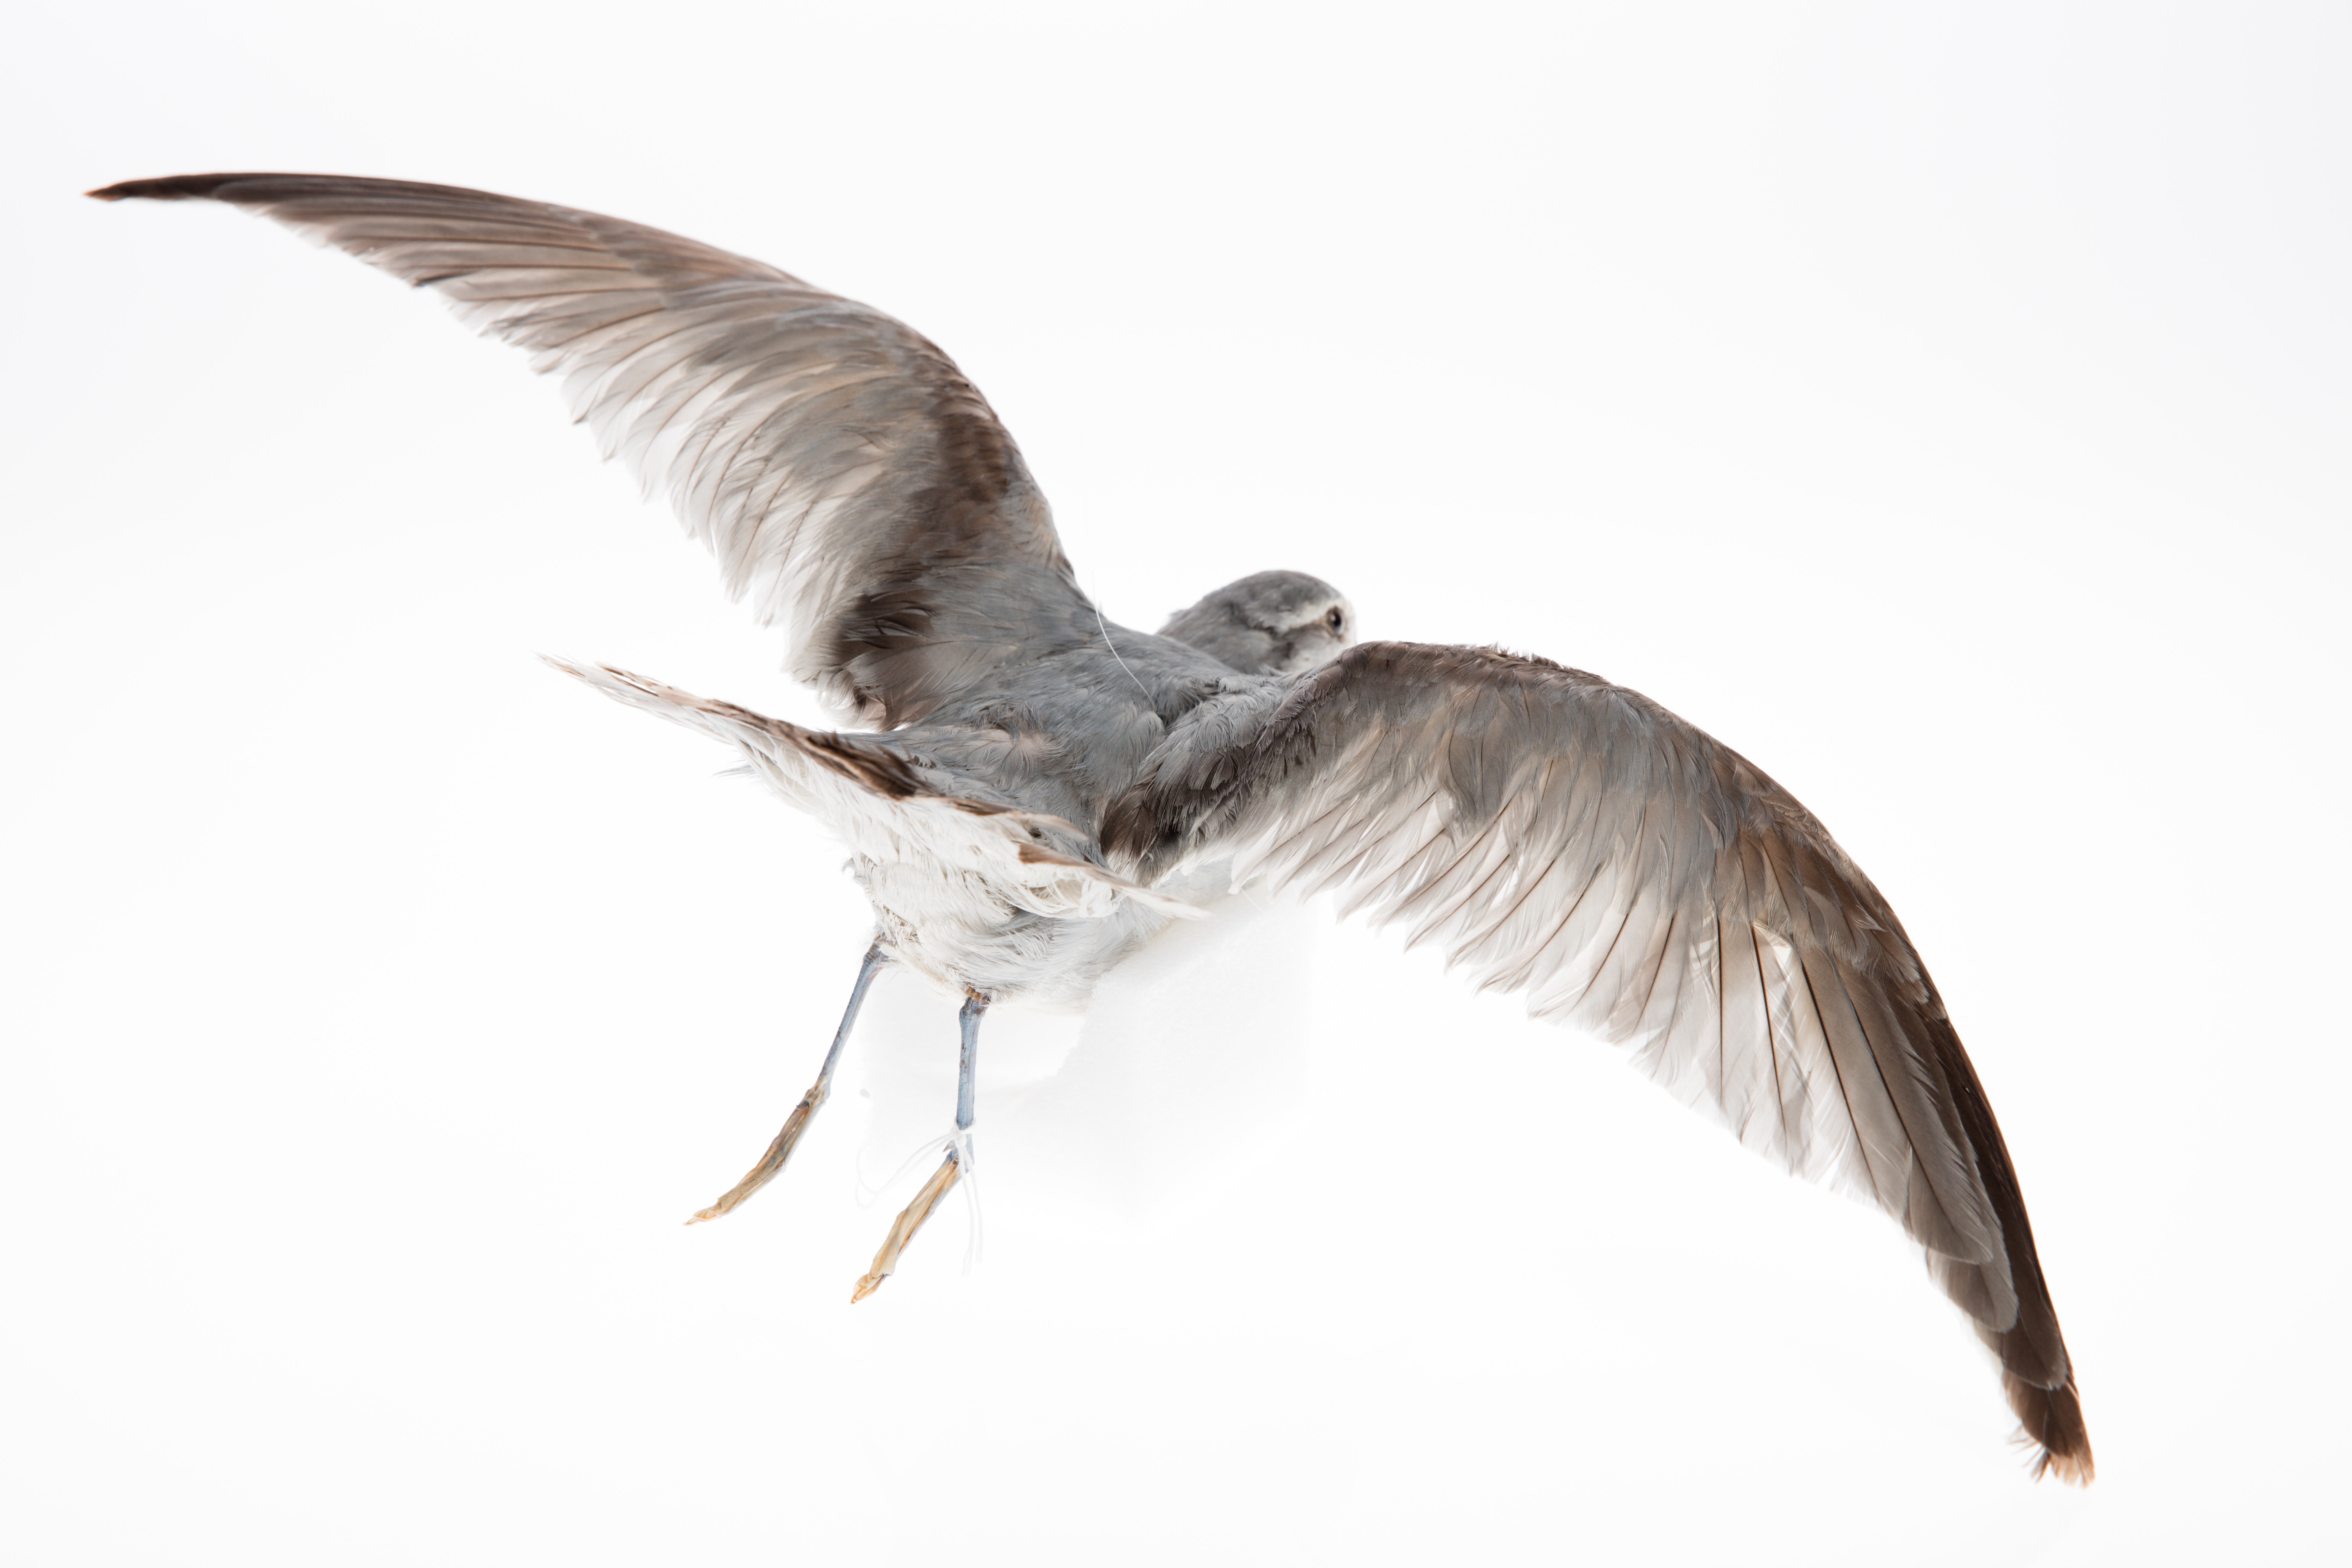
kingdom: Animalia
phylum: Chordata
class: Aves
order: Procellariiformes
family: Procellariidae
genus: Pachyptila
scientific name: Pachyptila turtur
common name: Fairy prion
